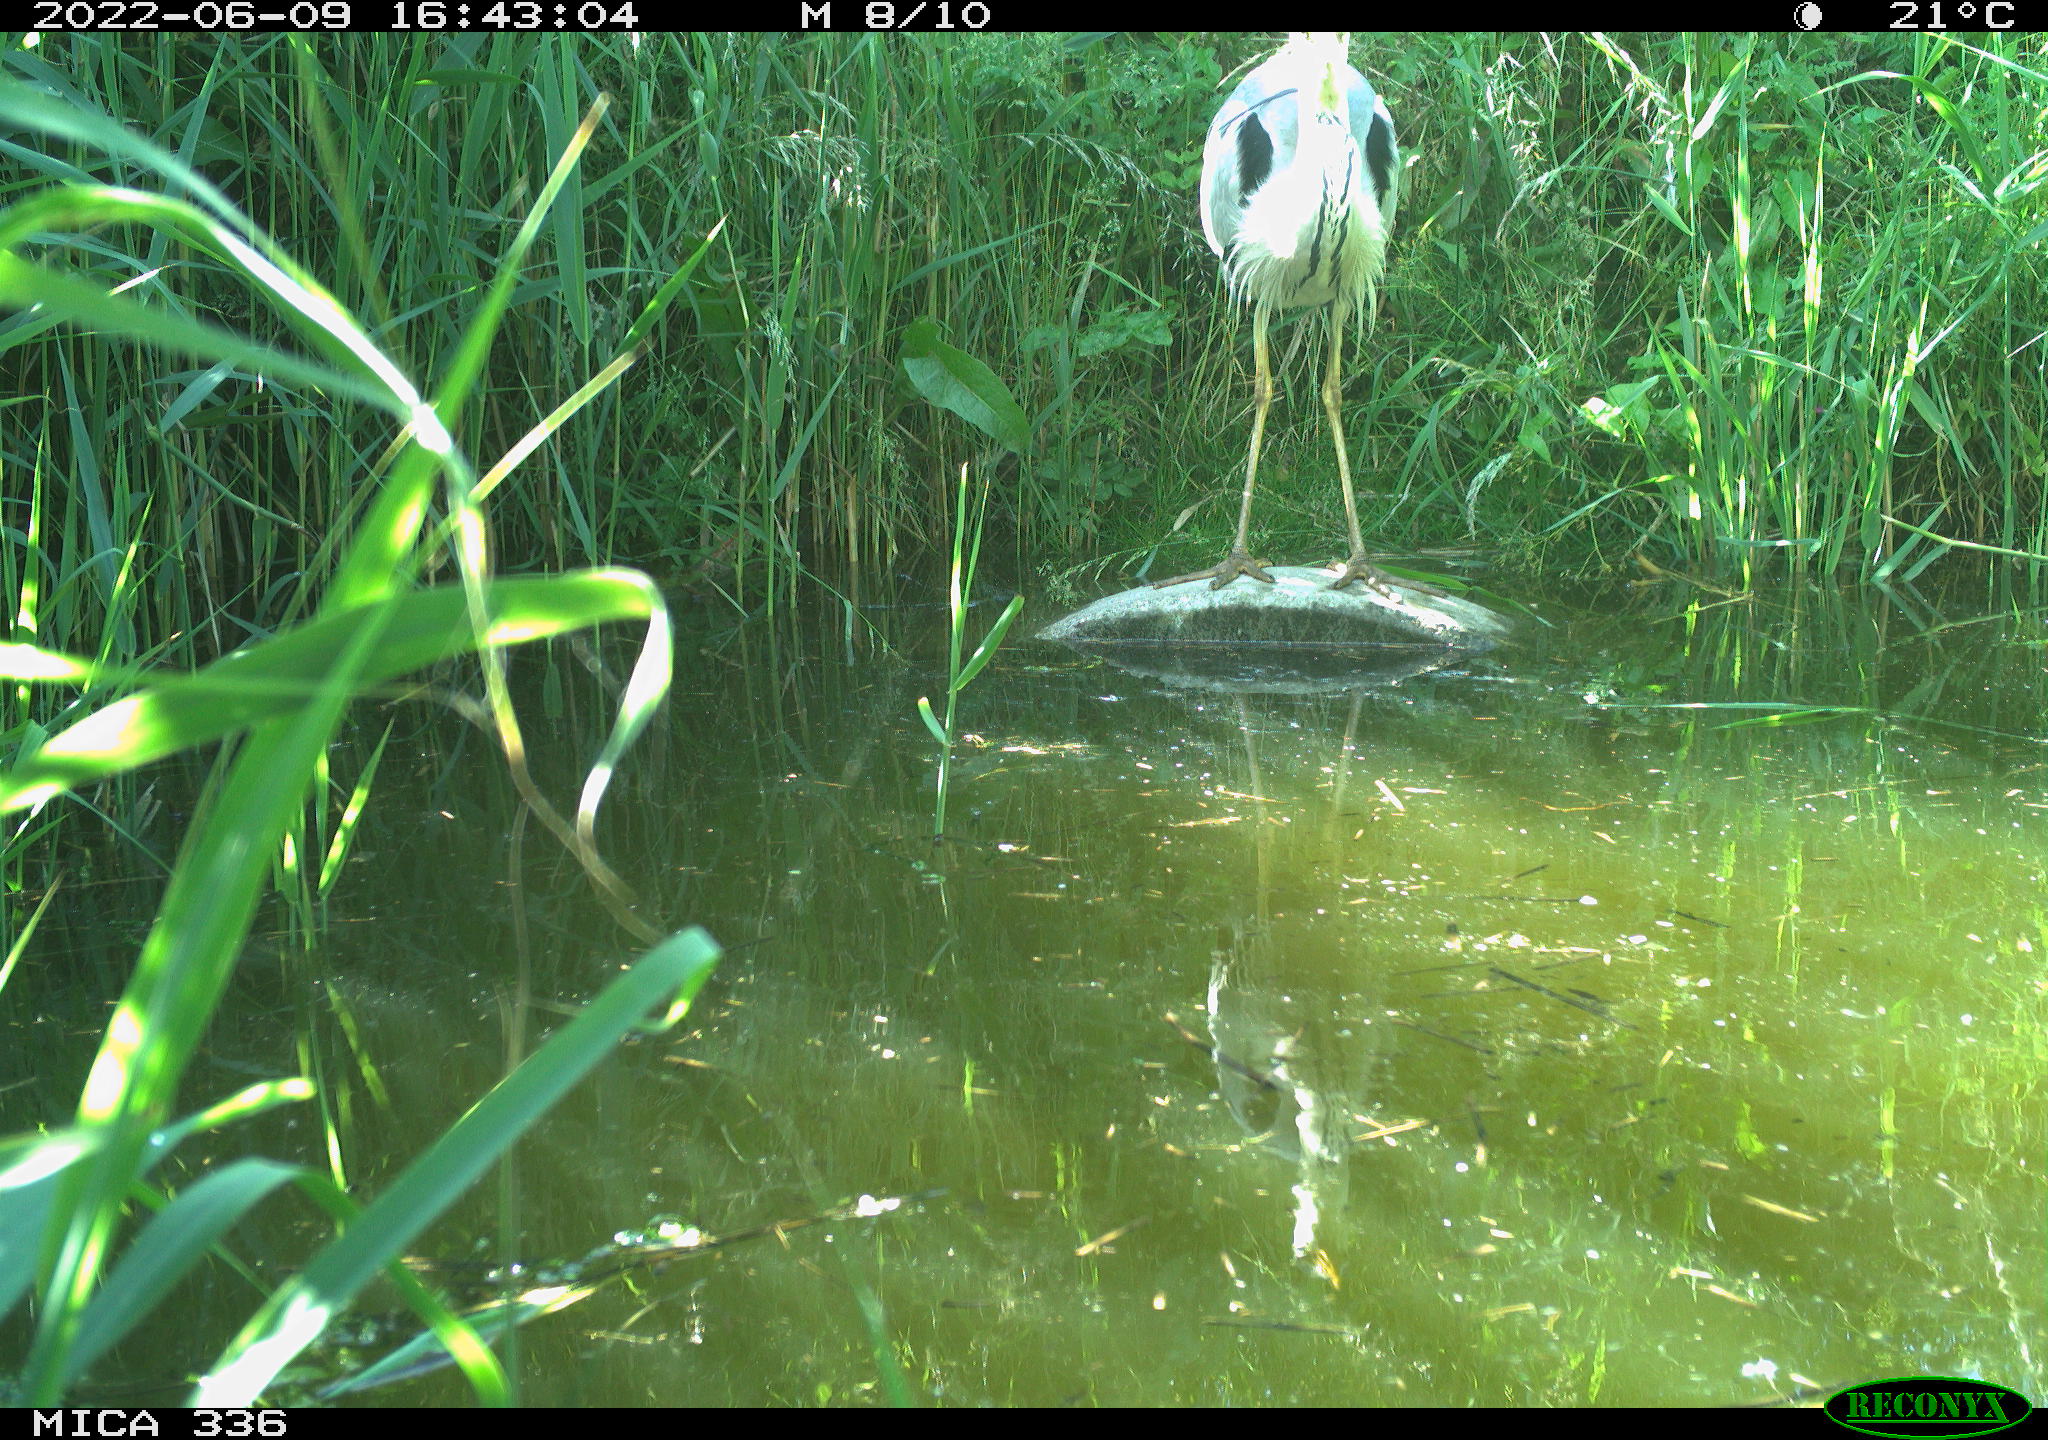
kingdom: Animalia
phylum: Chordata
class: Aves
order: Pelecaniformes
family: Ardeidae
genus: Ardea
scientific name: Ardea cinerea
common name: Grey heron
